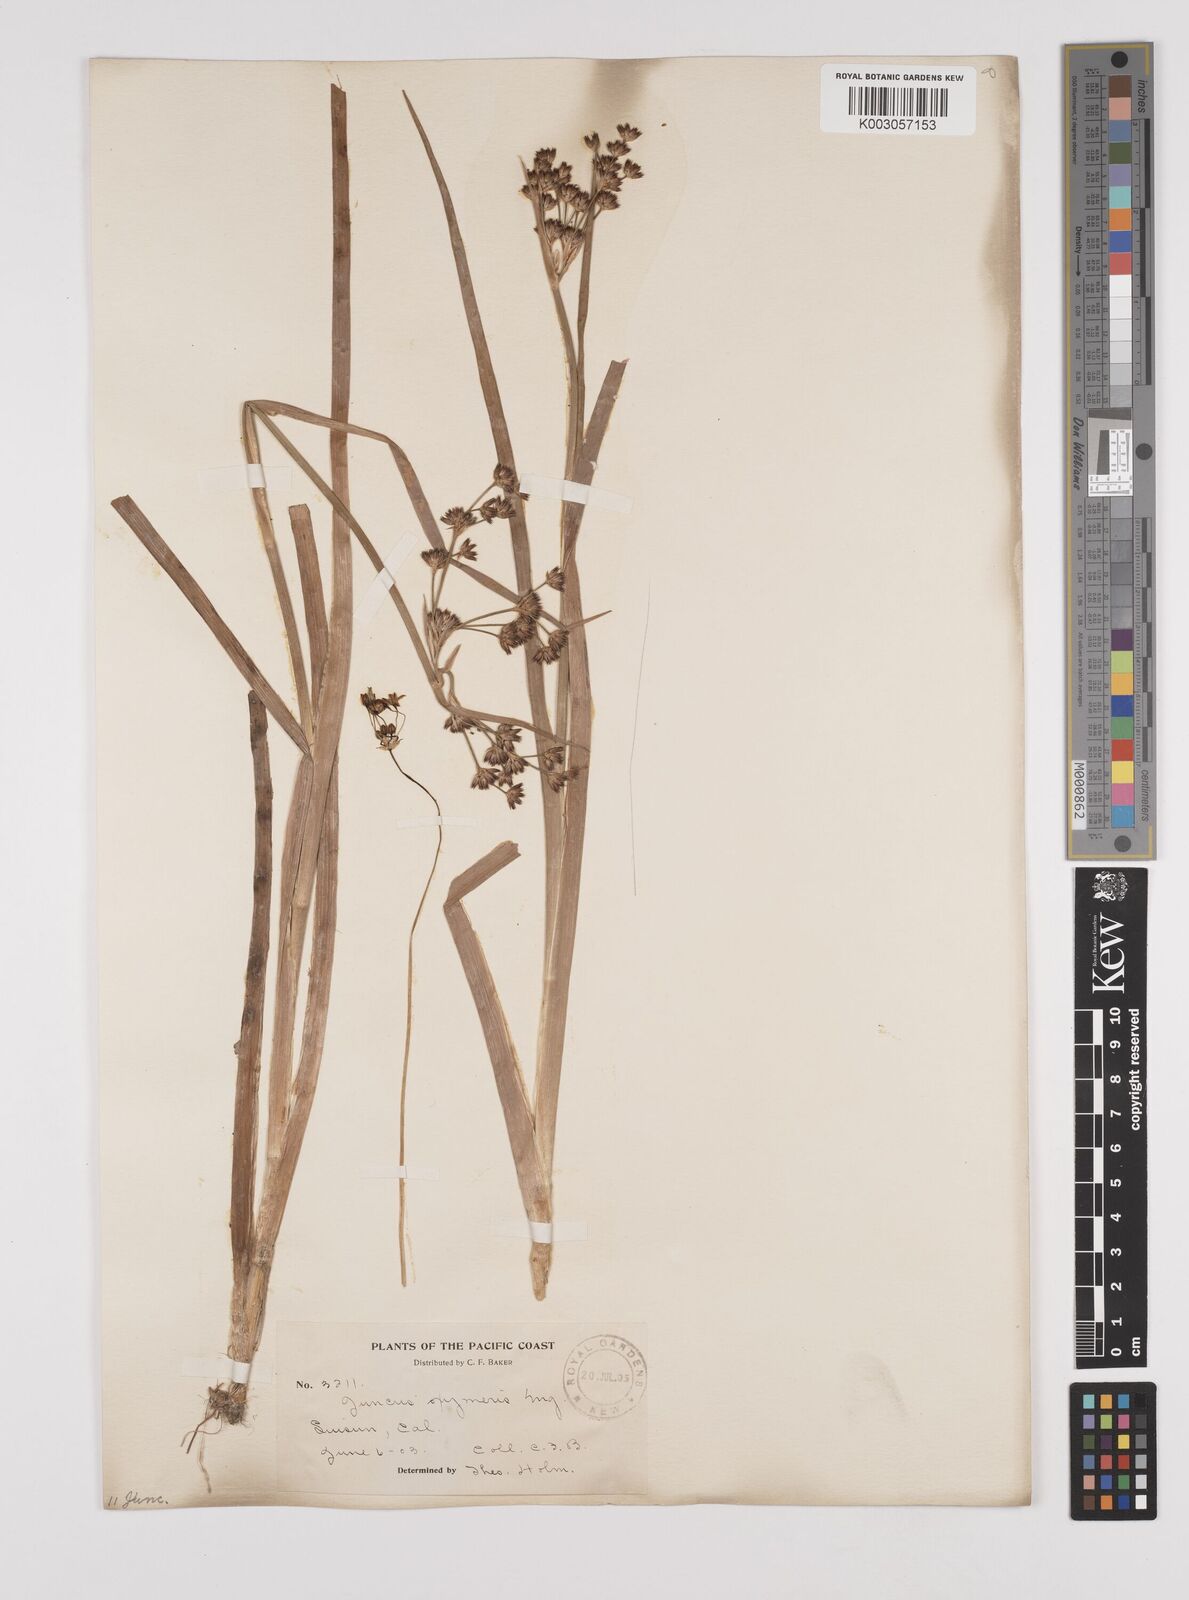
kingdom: Plantae
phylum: Tracheophyta
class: Liliopsida
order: Poales
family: Juncaceae
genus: Juncus
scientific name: Juncus oxymeris
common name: Pointed rush
